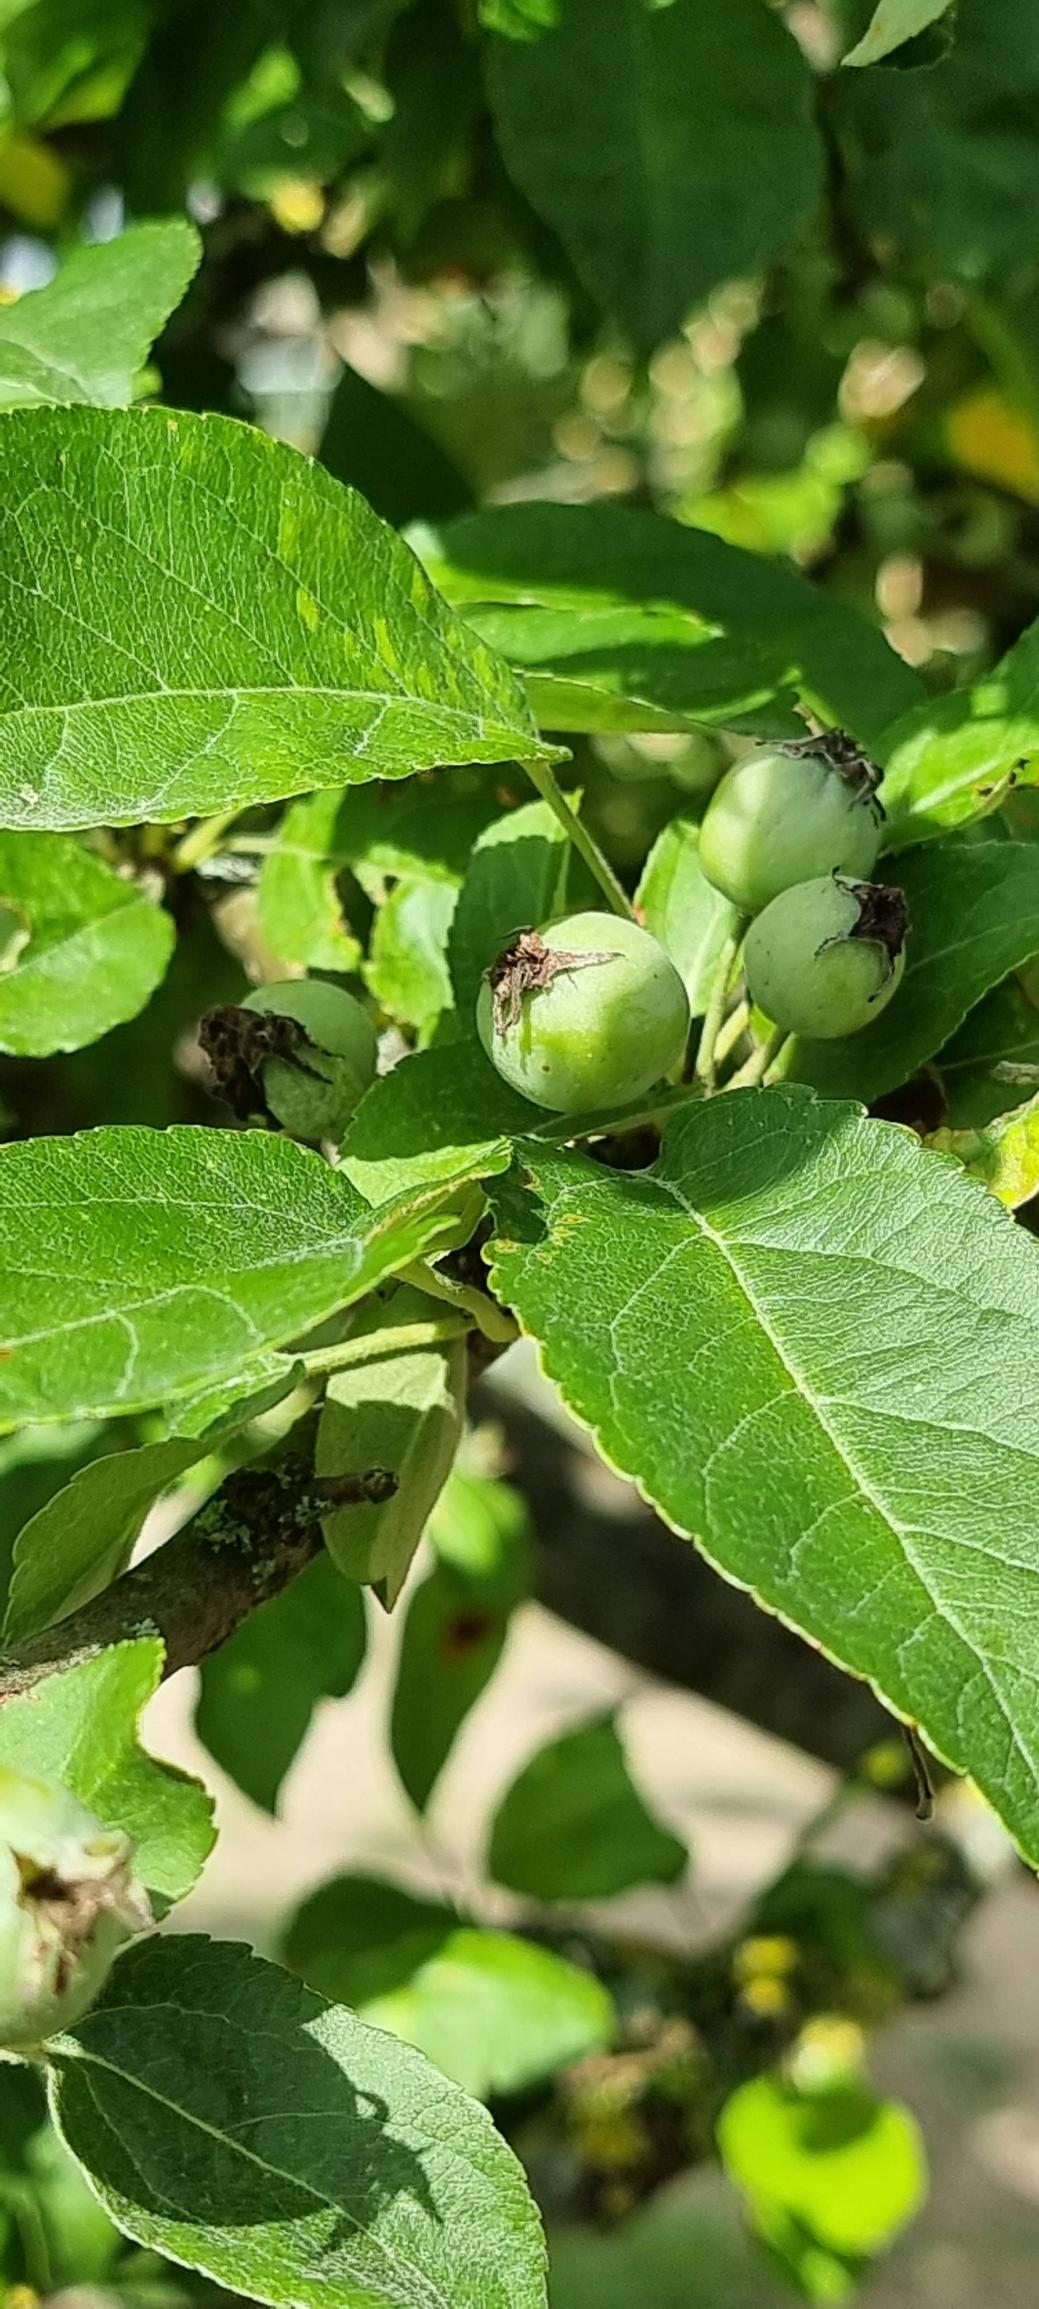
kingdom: Plantae
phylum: Tracheophyta
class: Magnoliopsida
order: Rosales
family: Rosaceae
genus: Malus
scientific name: Malus domestica
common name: Sød-æble
